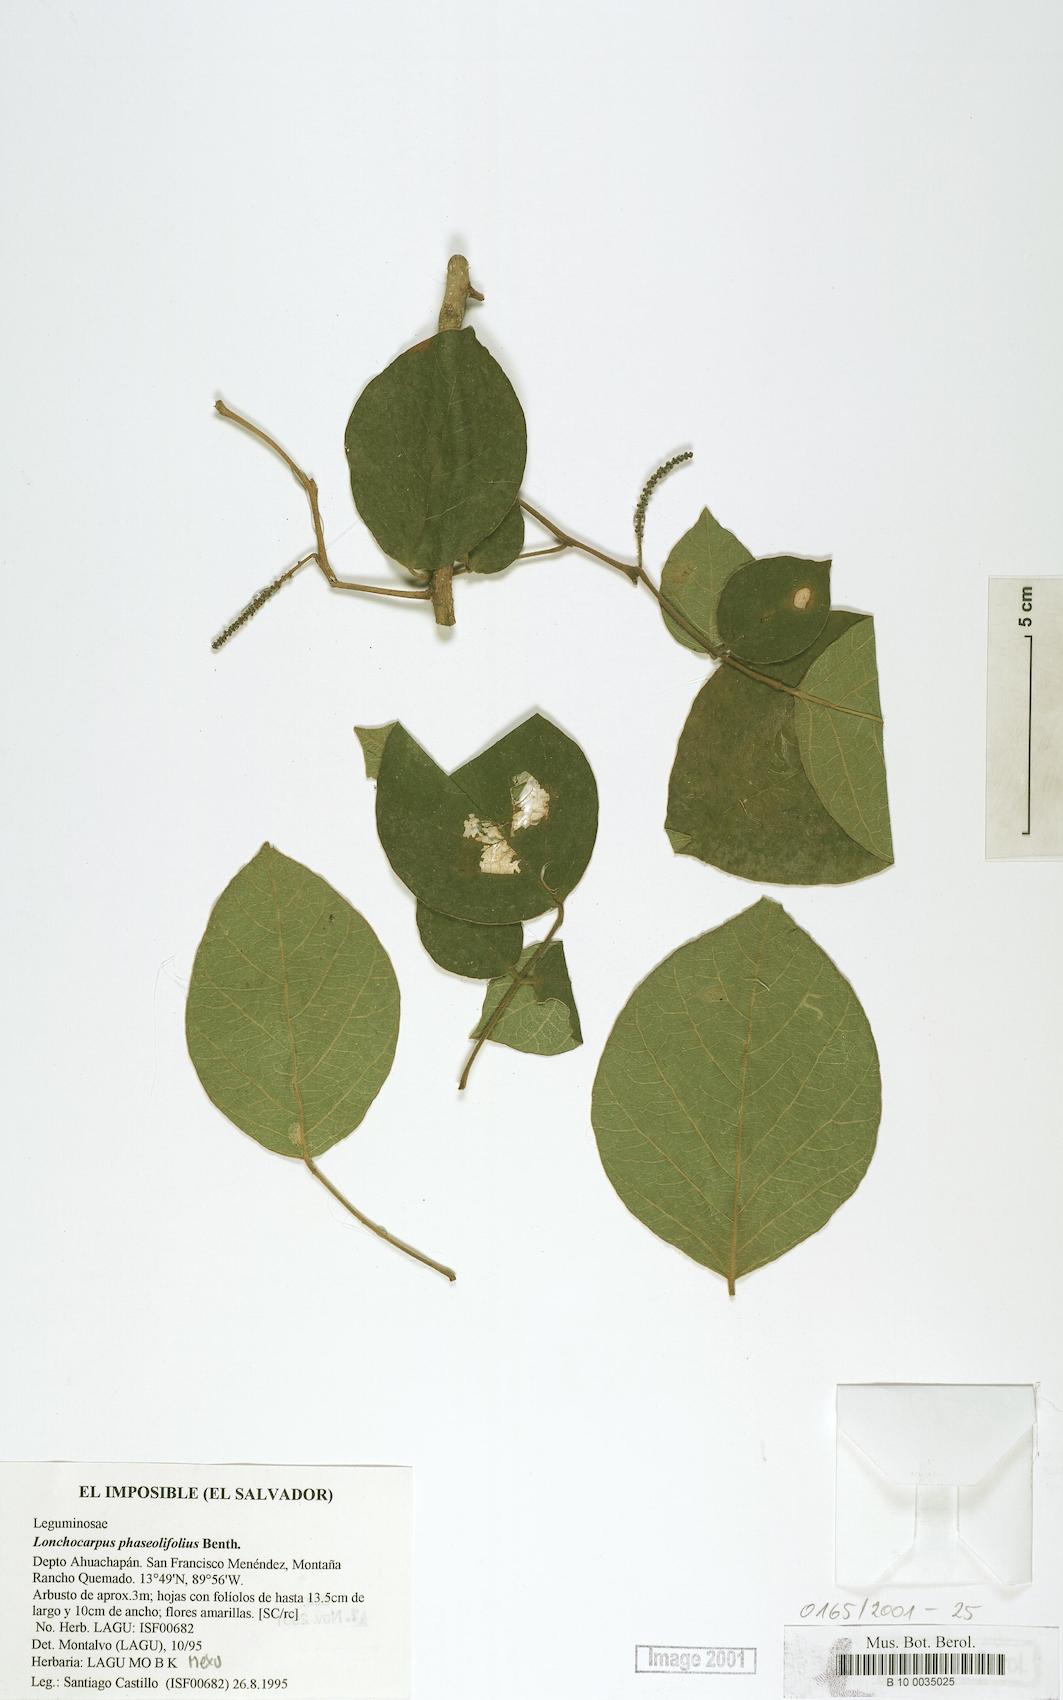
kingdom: Plantae
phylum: Tracheophyta
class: Magnoliopsida
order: Fabales
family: Fabaceae
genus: Lonchocarpus
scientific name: Lonchocarpus phaseolifolius
